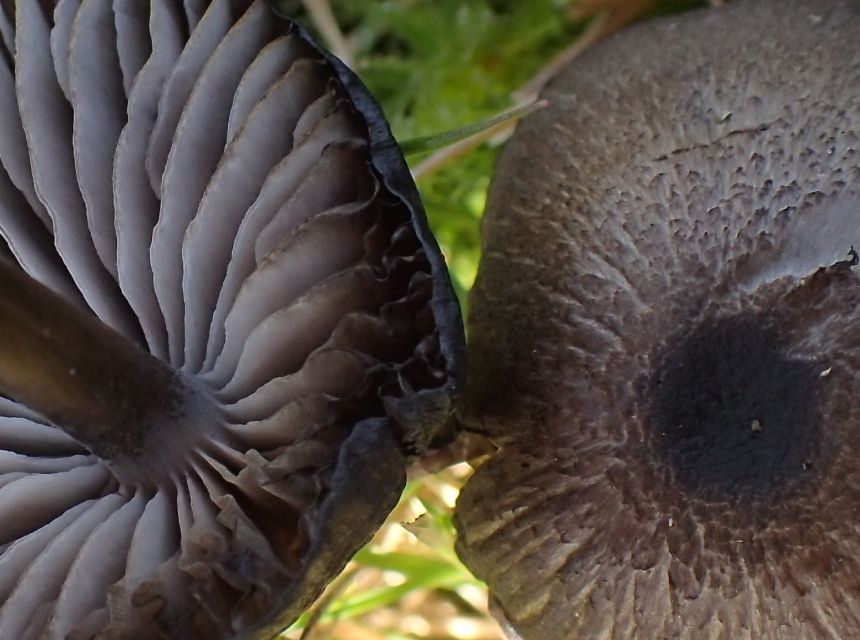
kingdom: Fungi
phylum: Basidiomycota
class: Agaricomycetes
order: Agaricales
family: Entolomataceae
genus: Entoloma
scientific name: Entoloma
